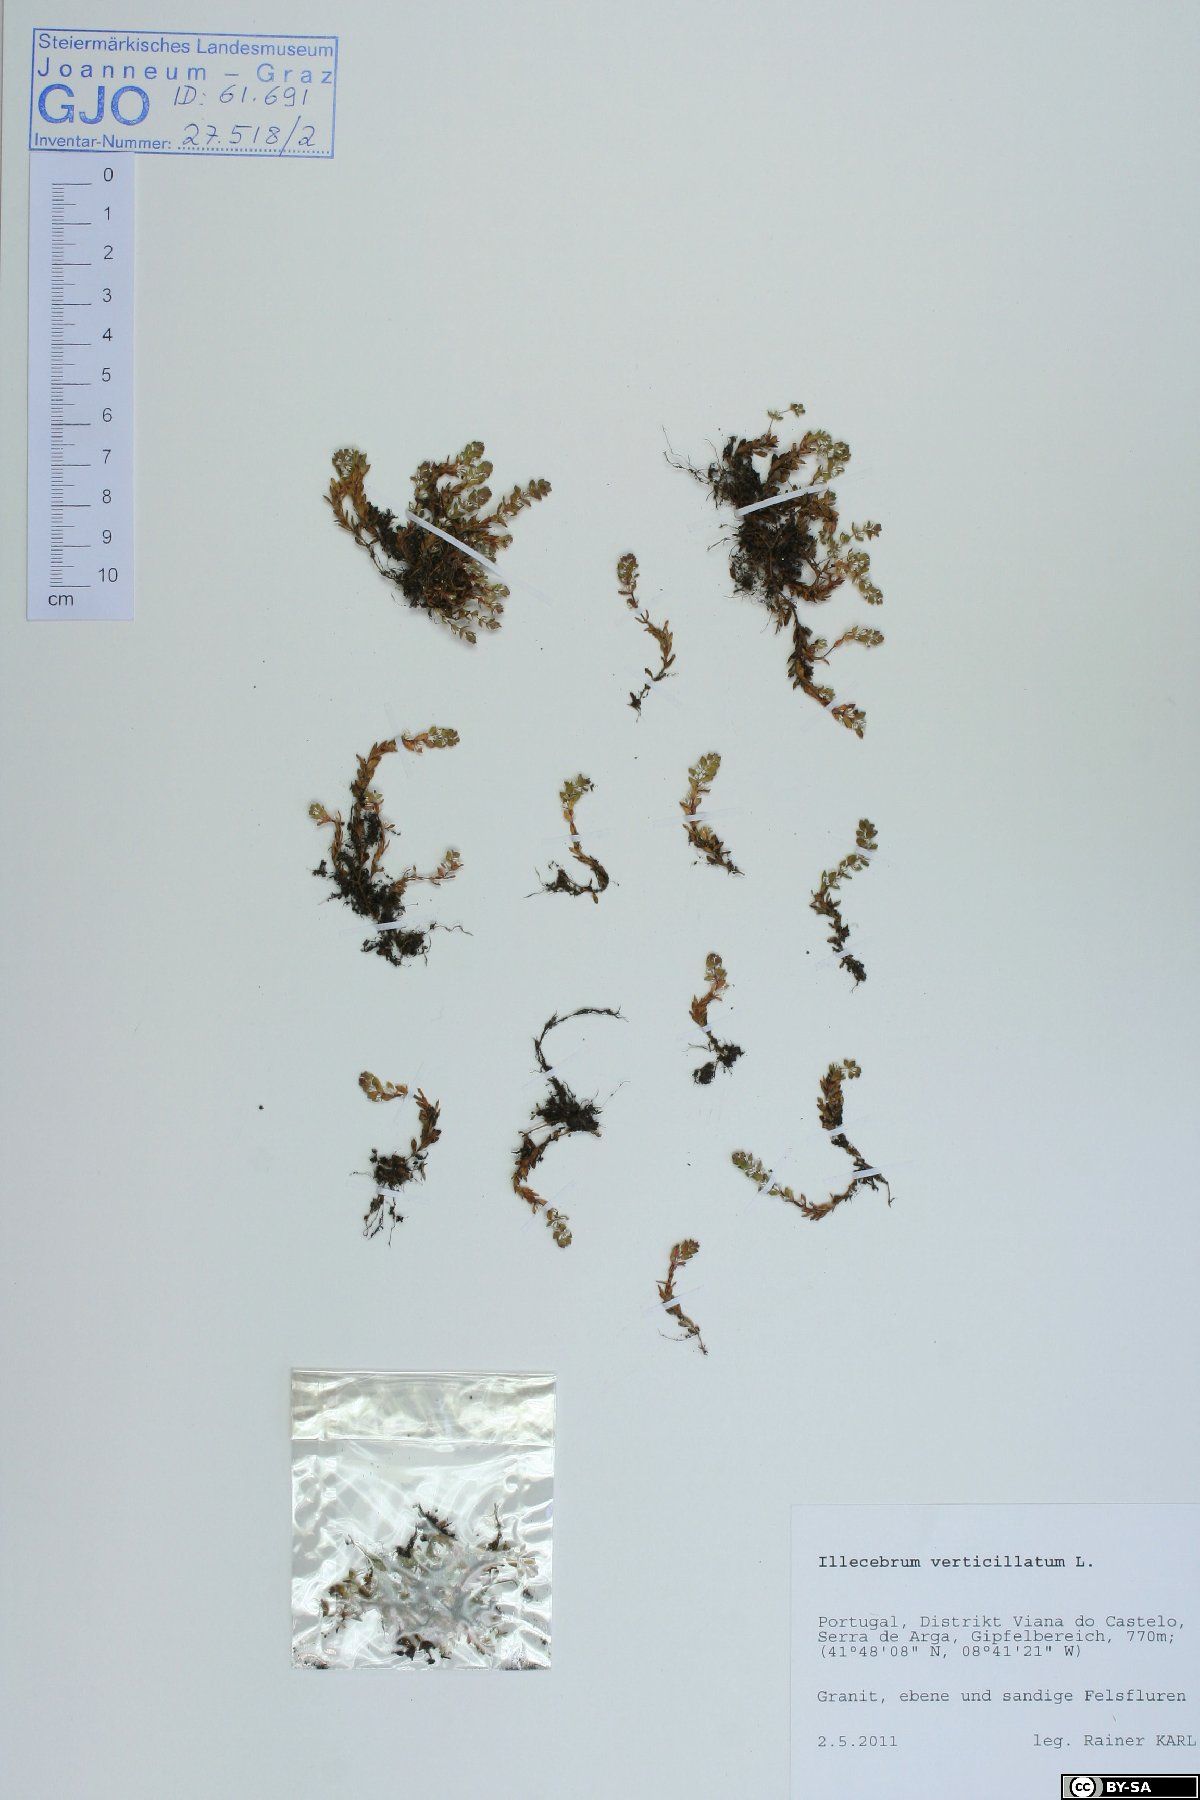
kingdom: Plantae
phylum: Tracheophyta
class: Magnoliopsida
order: Caryophyllales
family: Caryophyllaceae
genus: Illecebrum
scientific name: Illecebrum verticillatum
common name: Coral necklace
